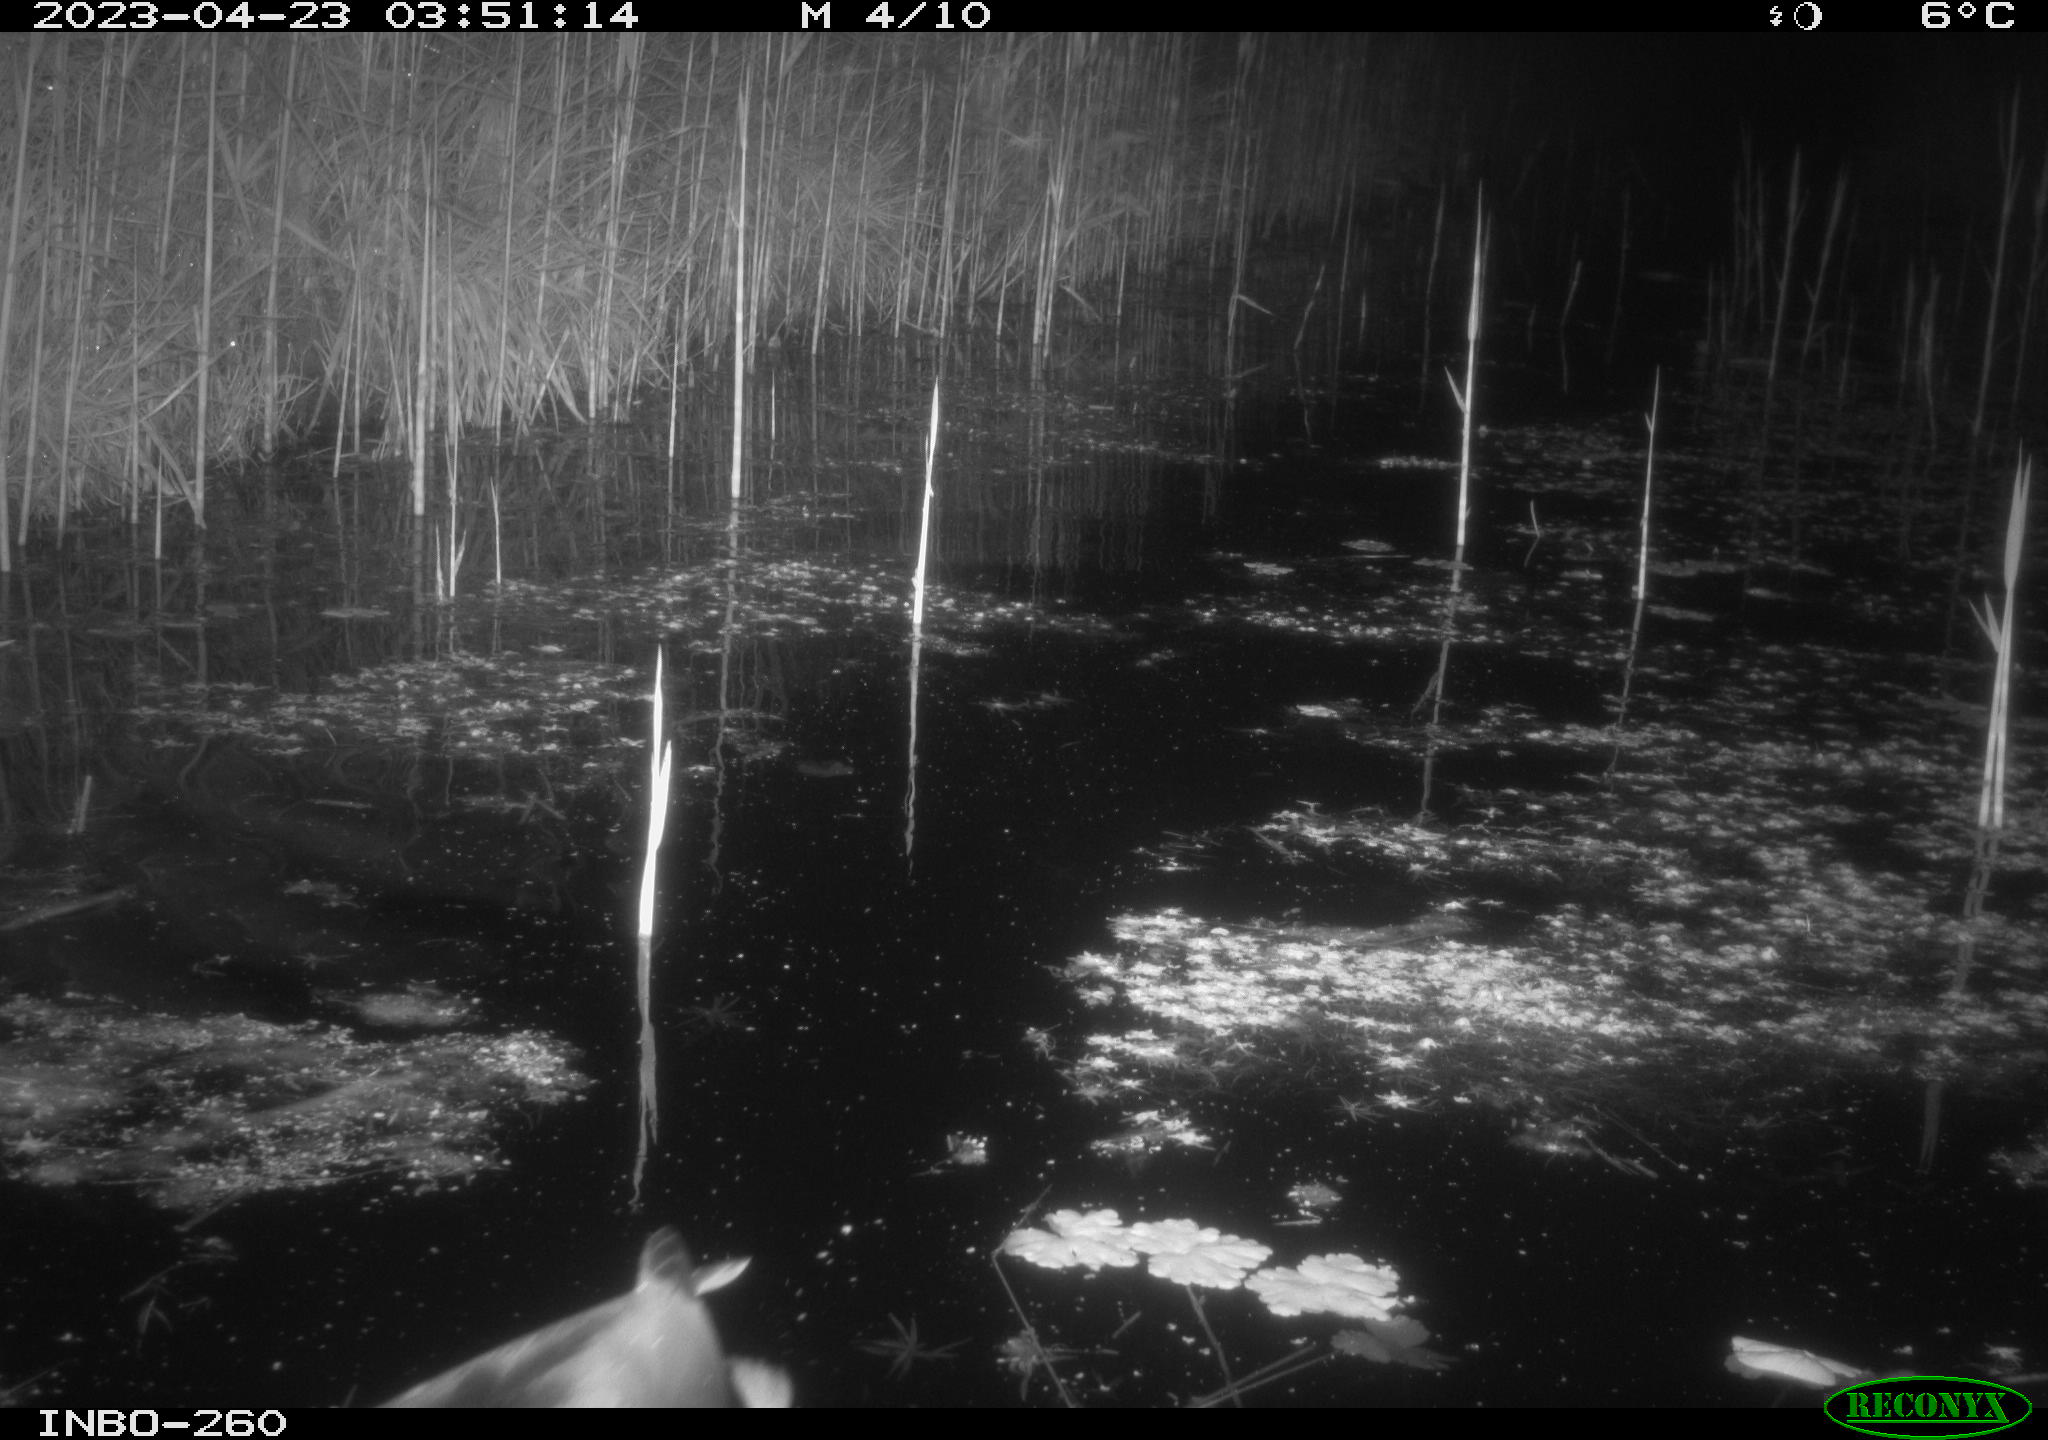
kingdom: Animalia
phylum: Chordata
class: Aves
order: Anseriformes
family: Anatidae
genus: Anas
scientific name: Anas
